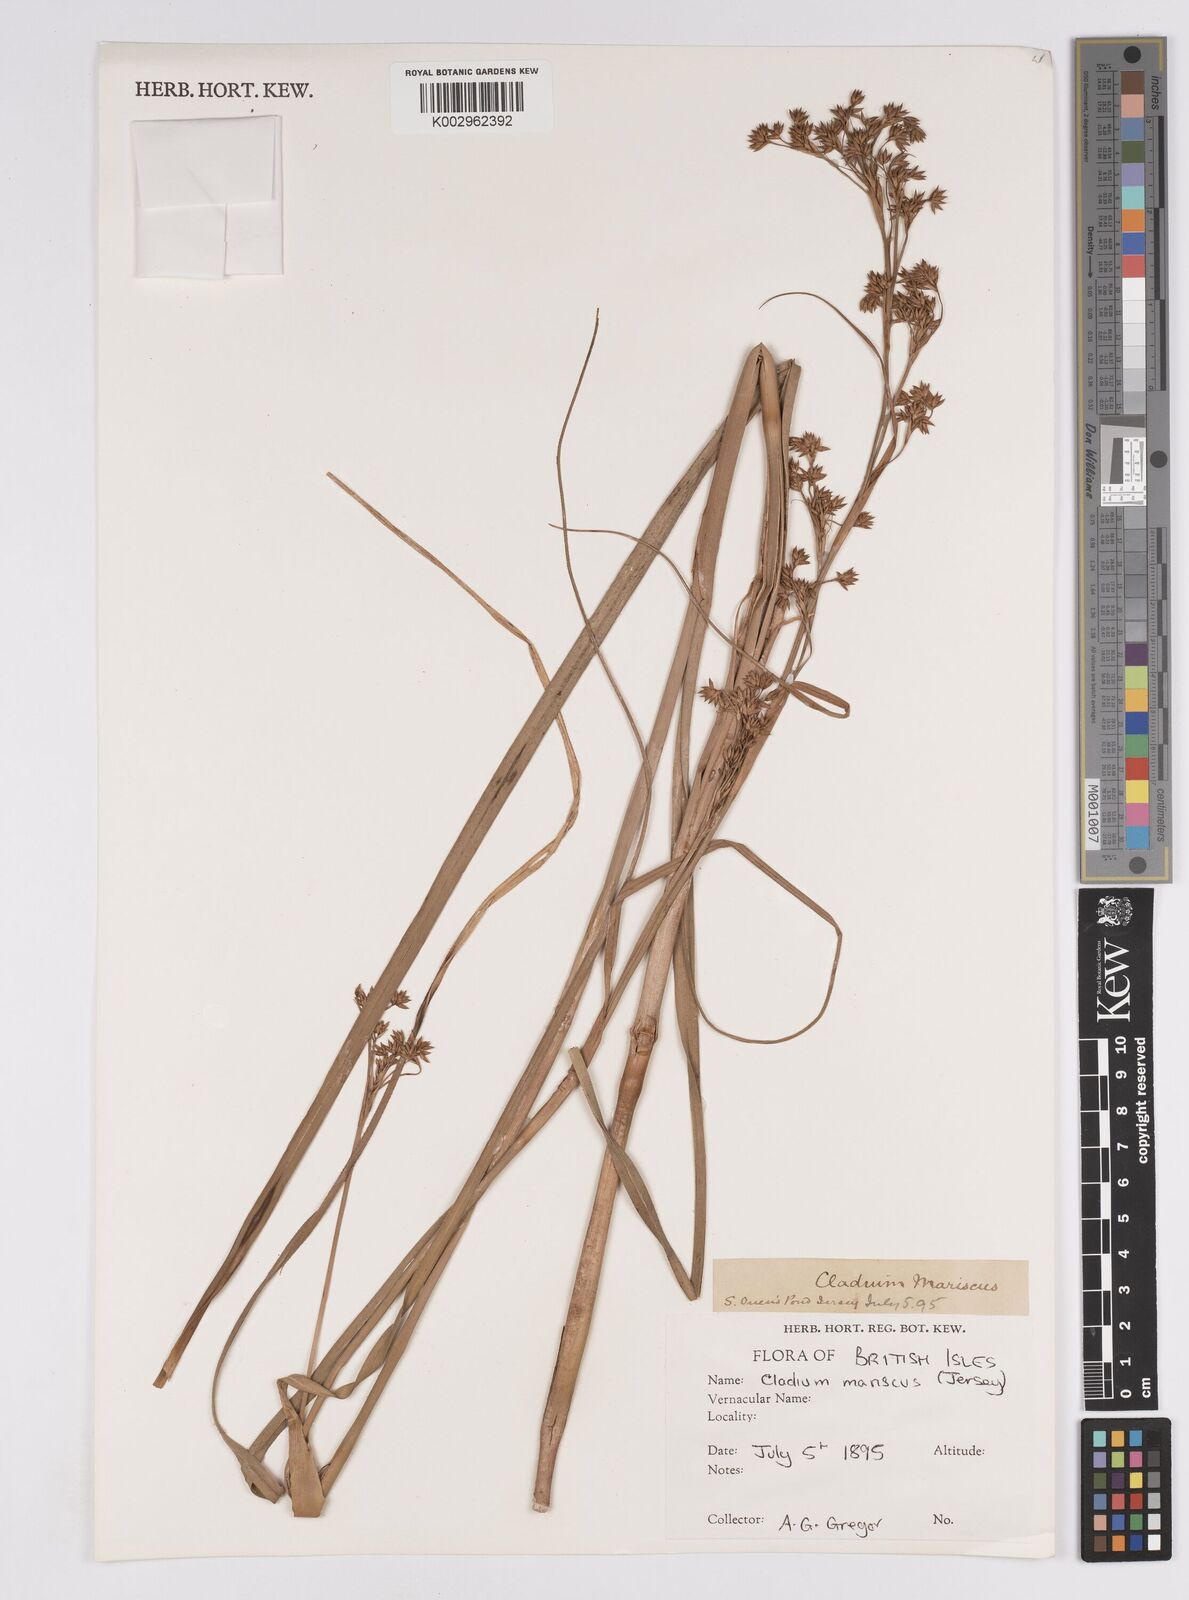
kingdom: Plantae
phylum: Tracheophyta
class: Liliopsida
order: Poales
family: Cyperaceae
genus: Cladium
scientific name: Cladium mariscus
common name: Great fen-sedge
